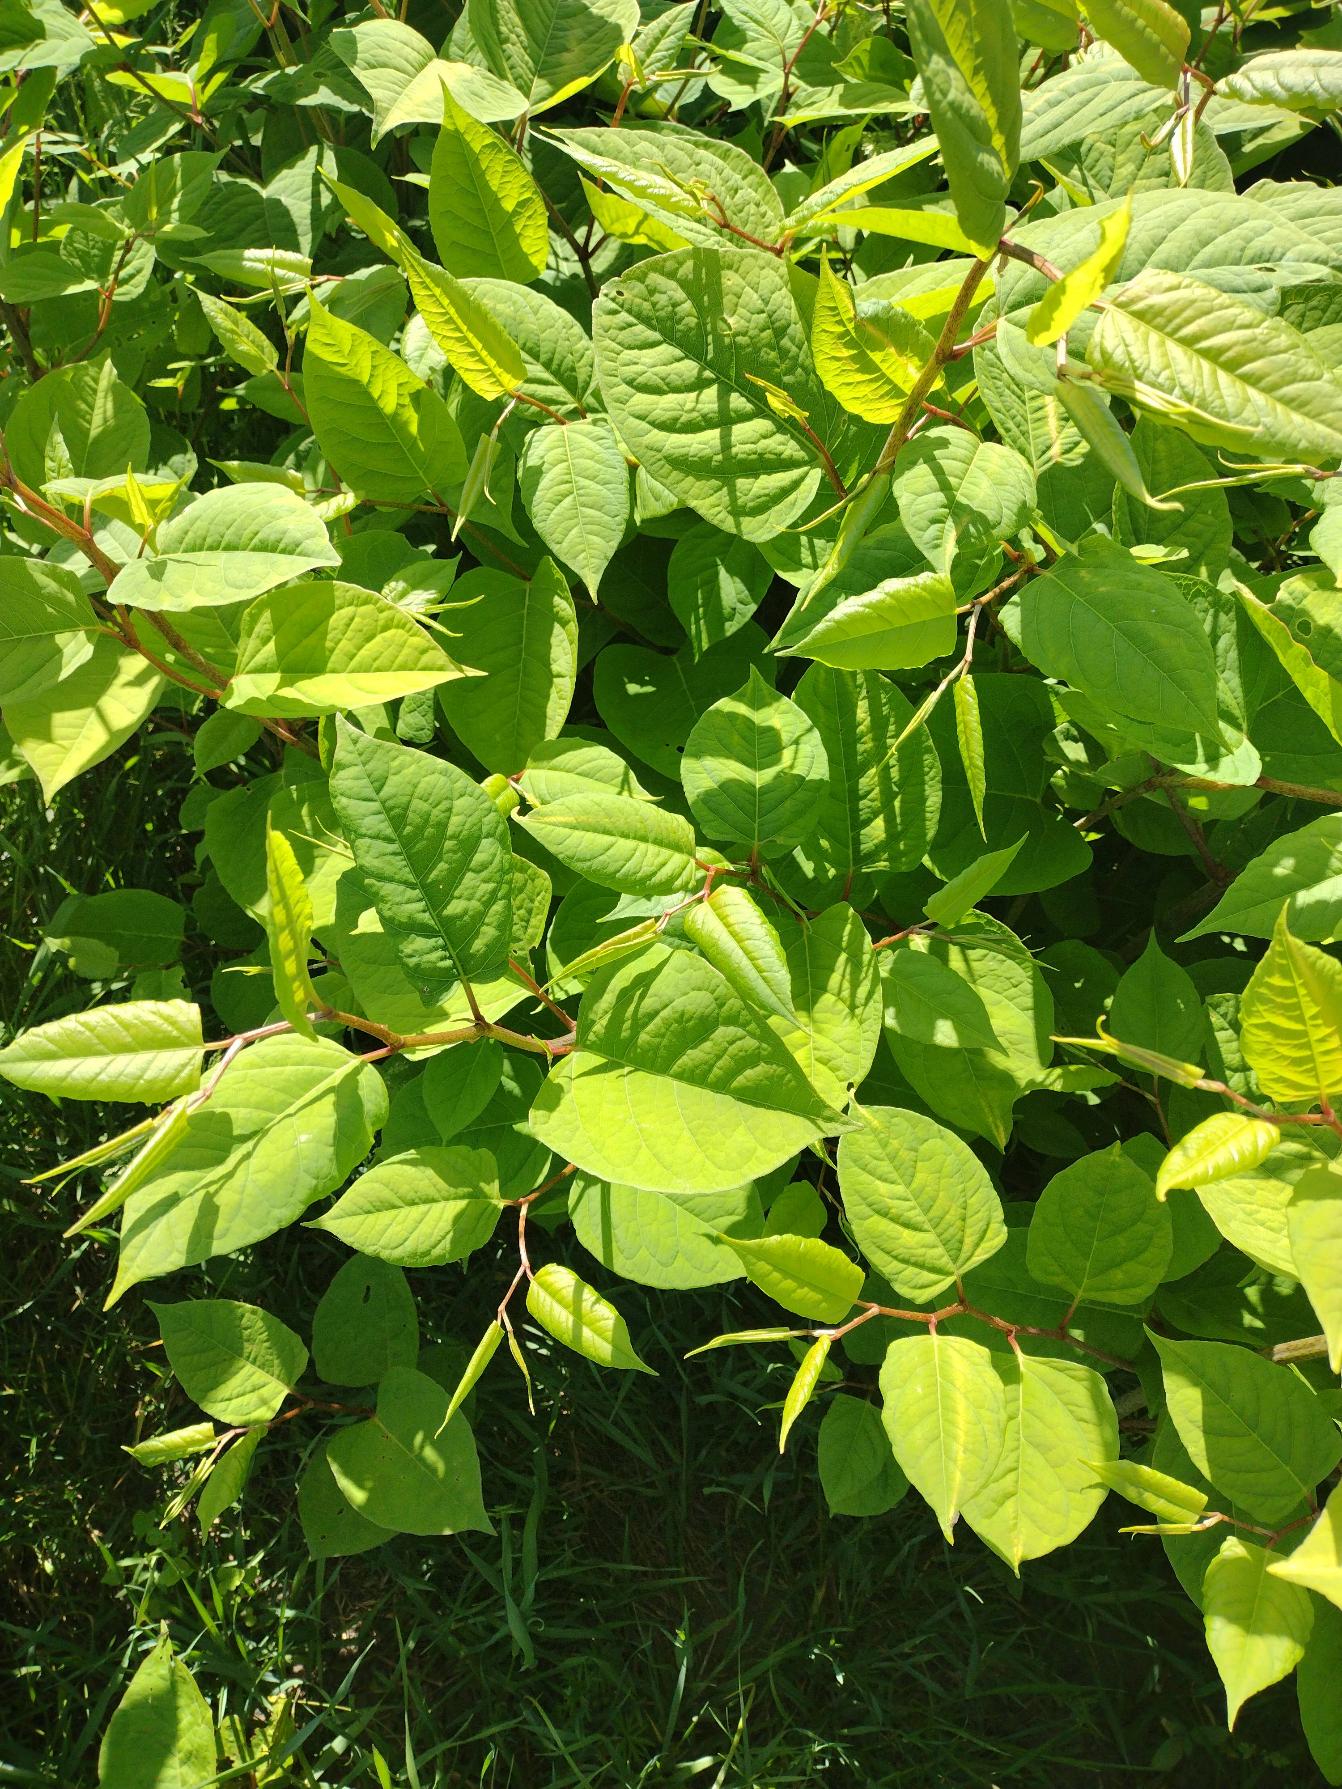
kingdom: Plantae
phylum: Tracheophyta
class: Magnoliopsida
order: Caryophyllales
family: Polygonaceae
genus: Reynoutria
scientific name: Reynoutria japonica
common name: Japan-pileurt
